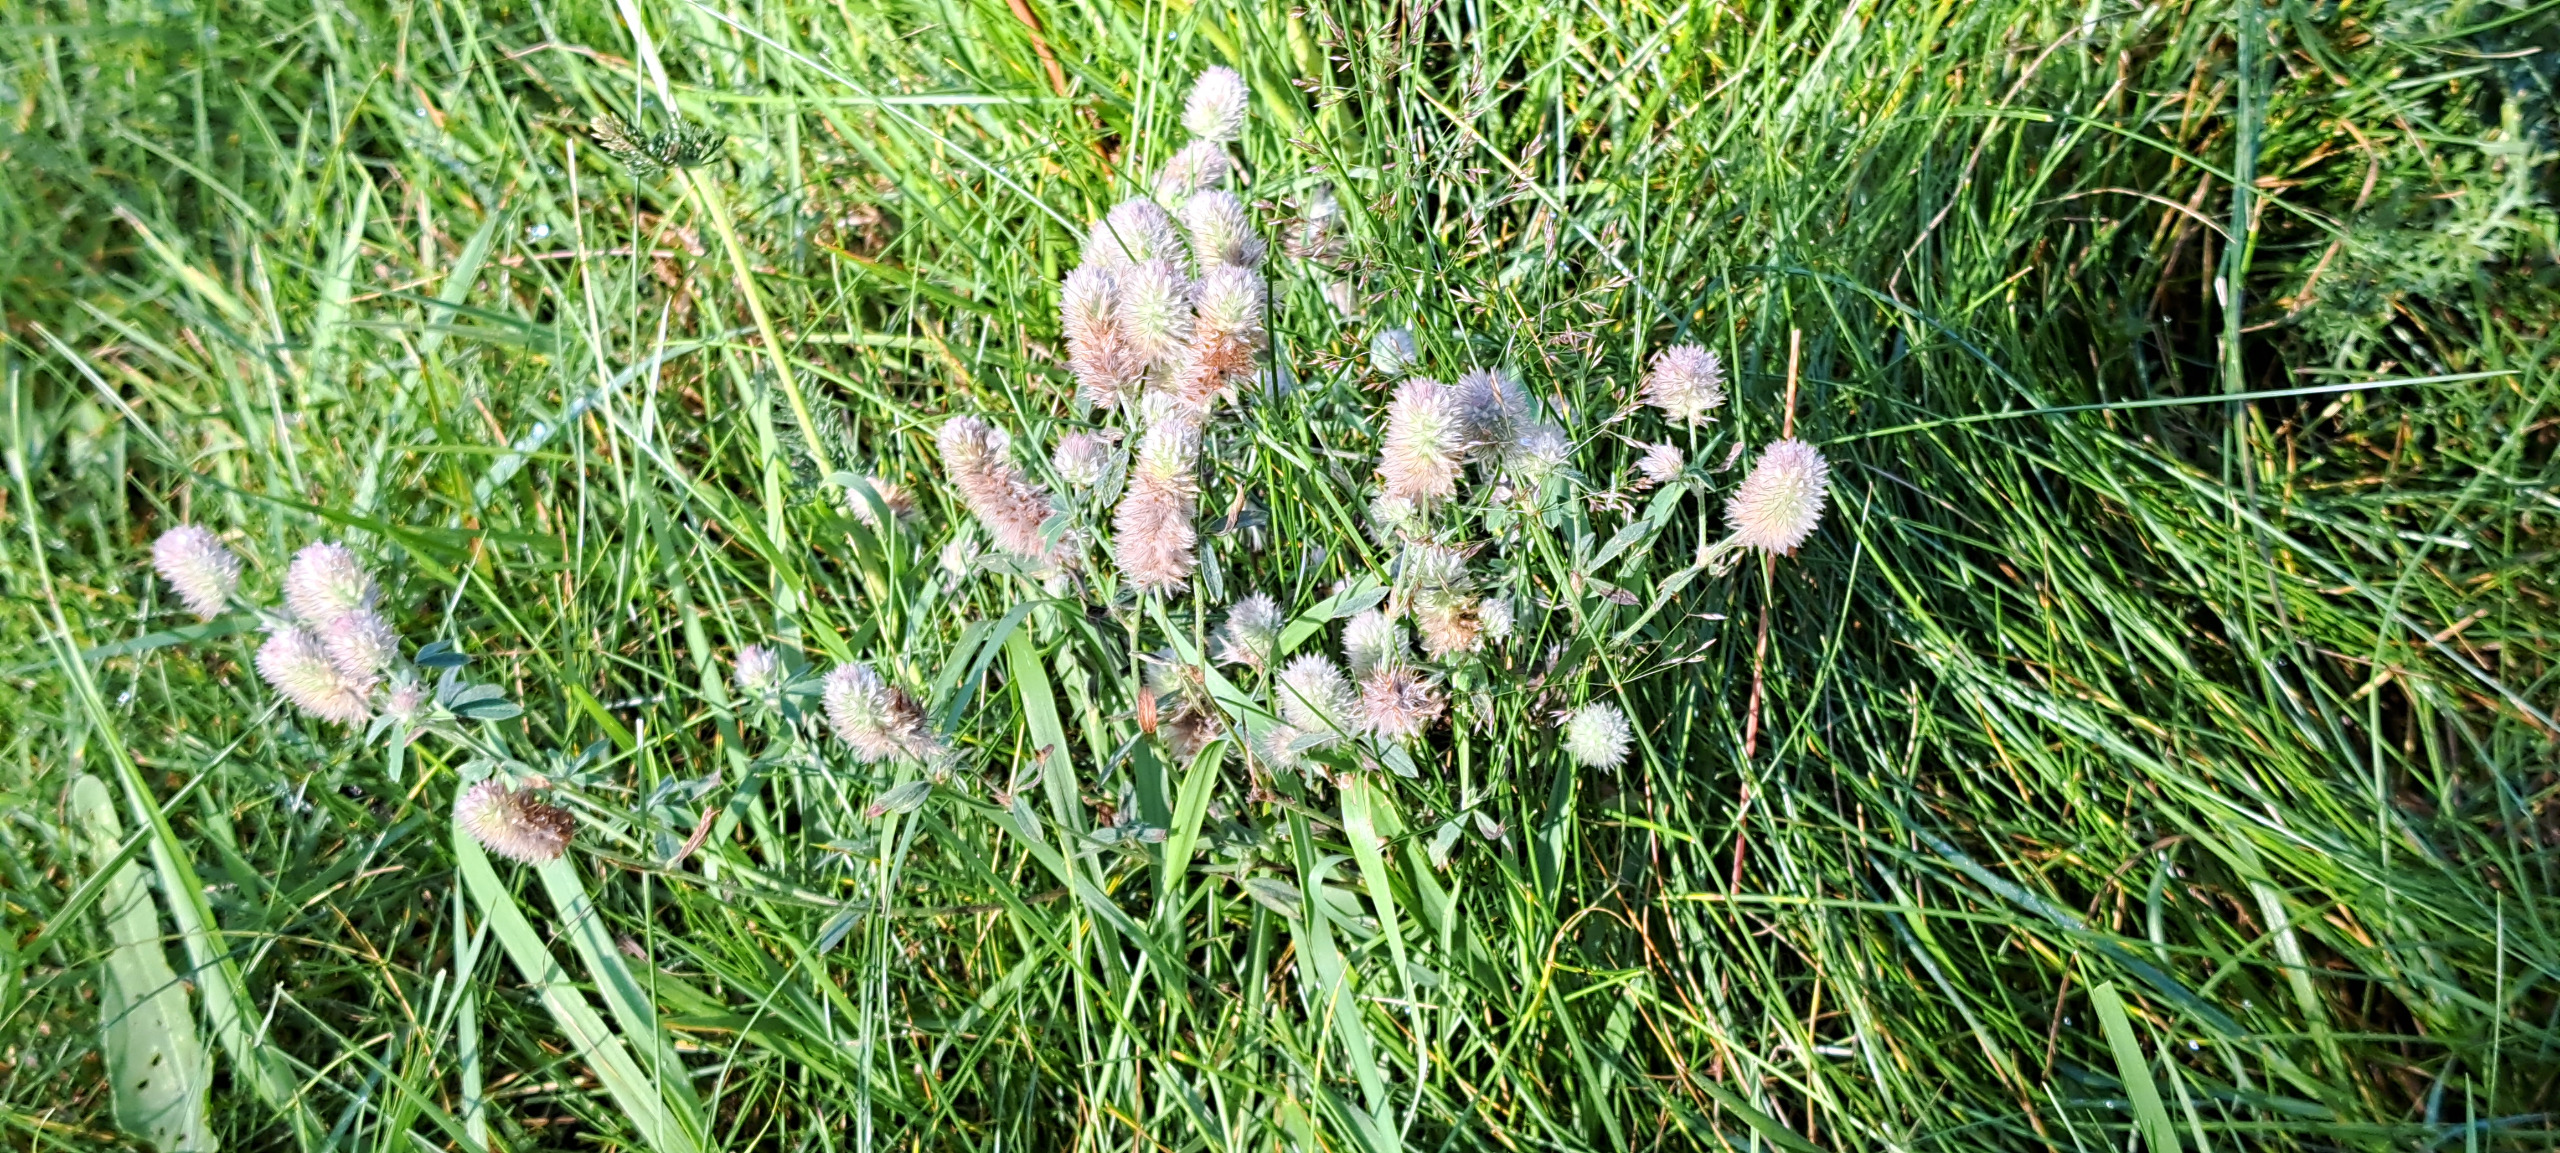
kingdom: Plantae
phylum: Tracheophyta
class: Magnoliopsida
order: Fabales
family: Fabaceae
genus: Trifolium
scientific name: Trifolium arvense
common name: Hare-kløver
